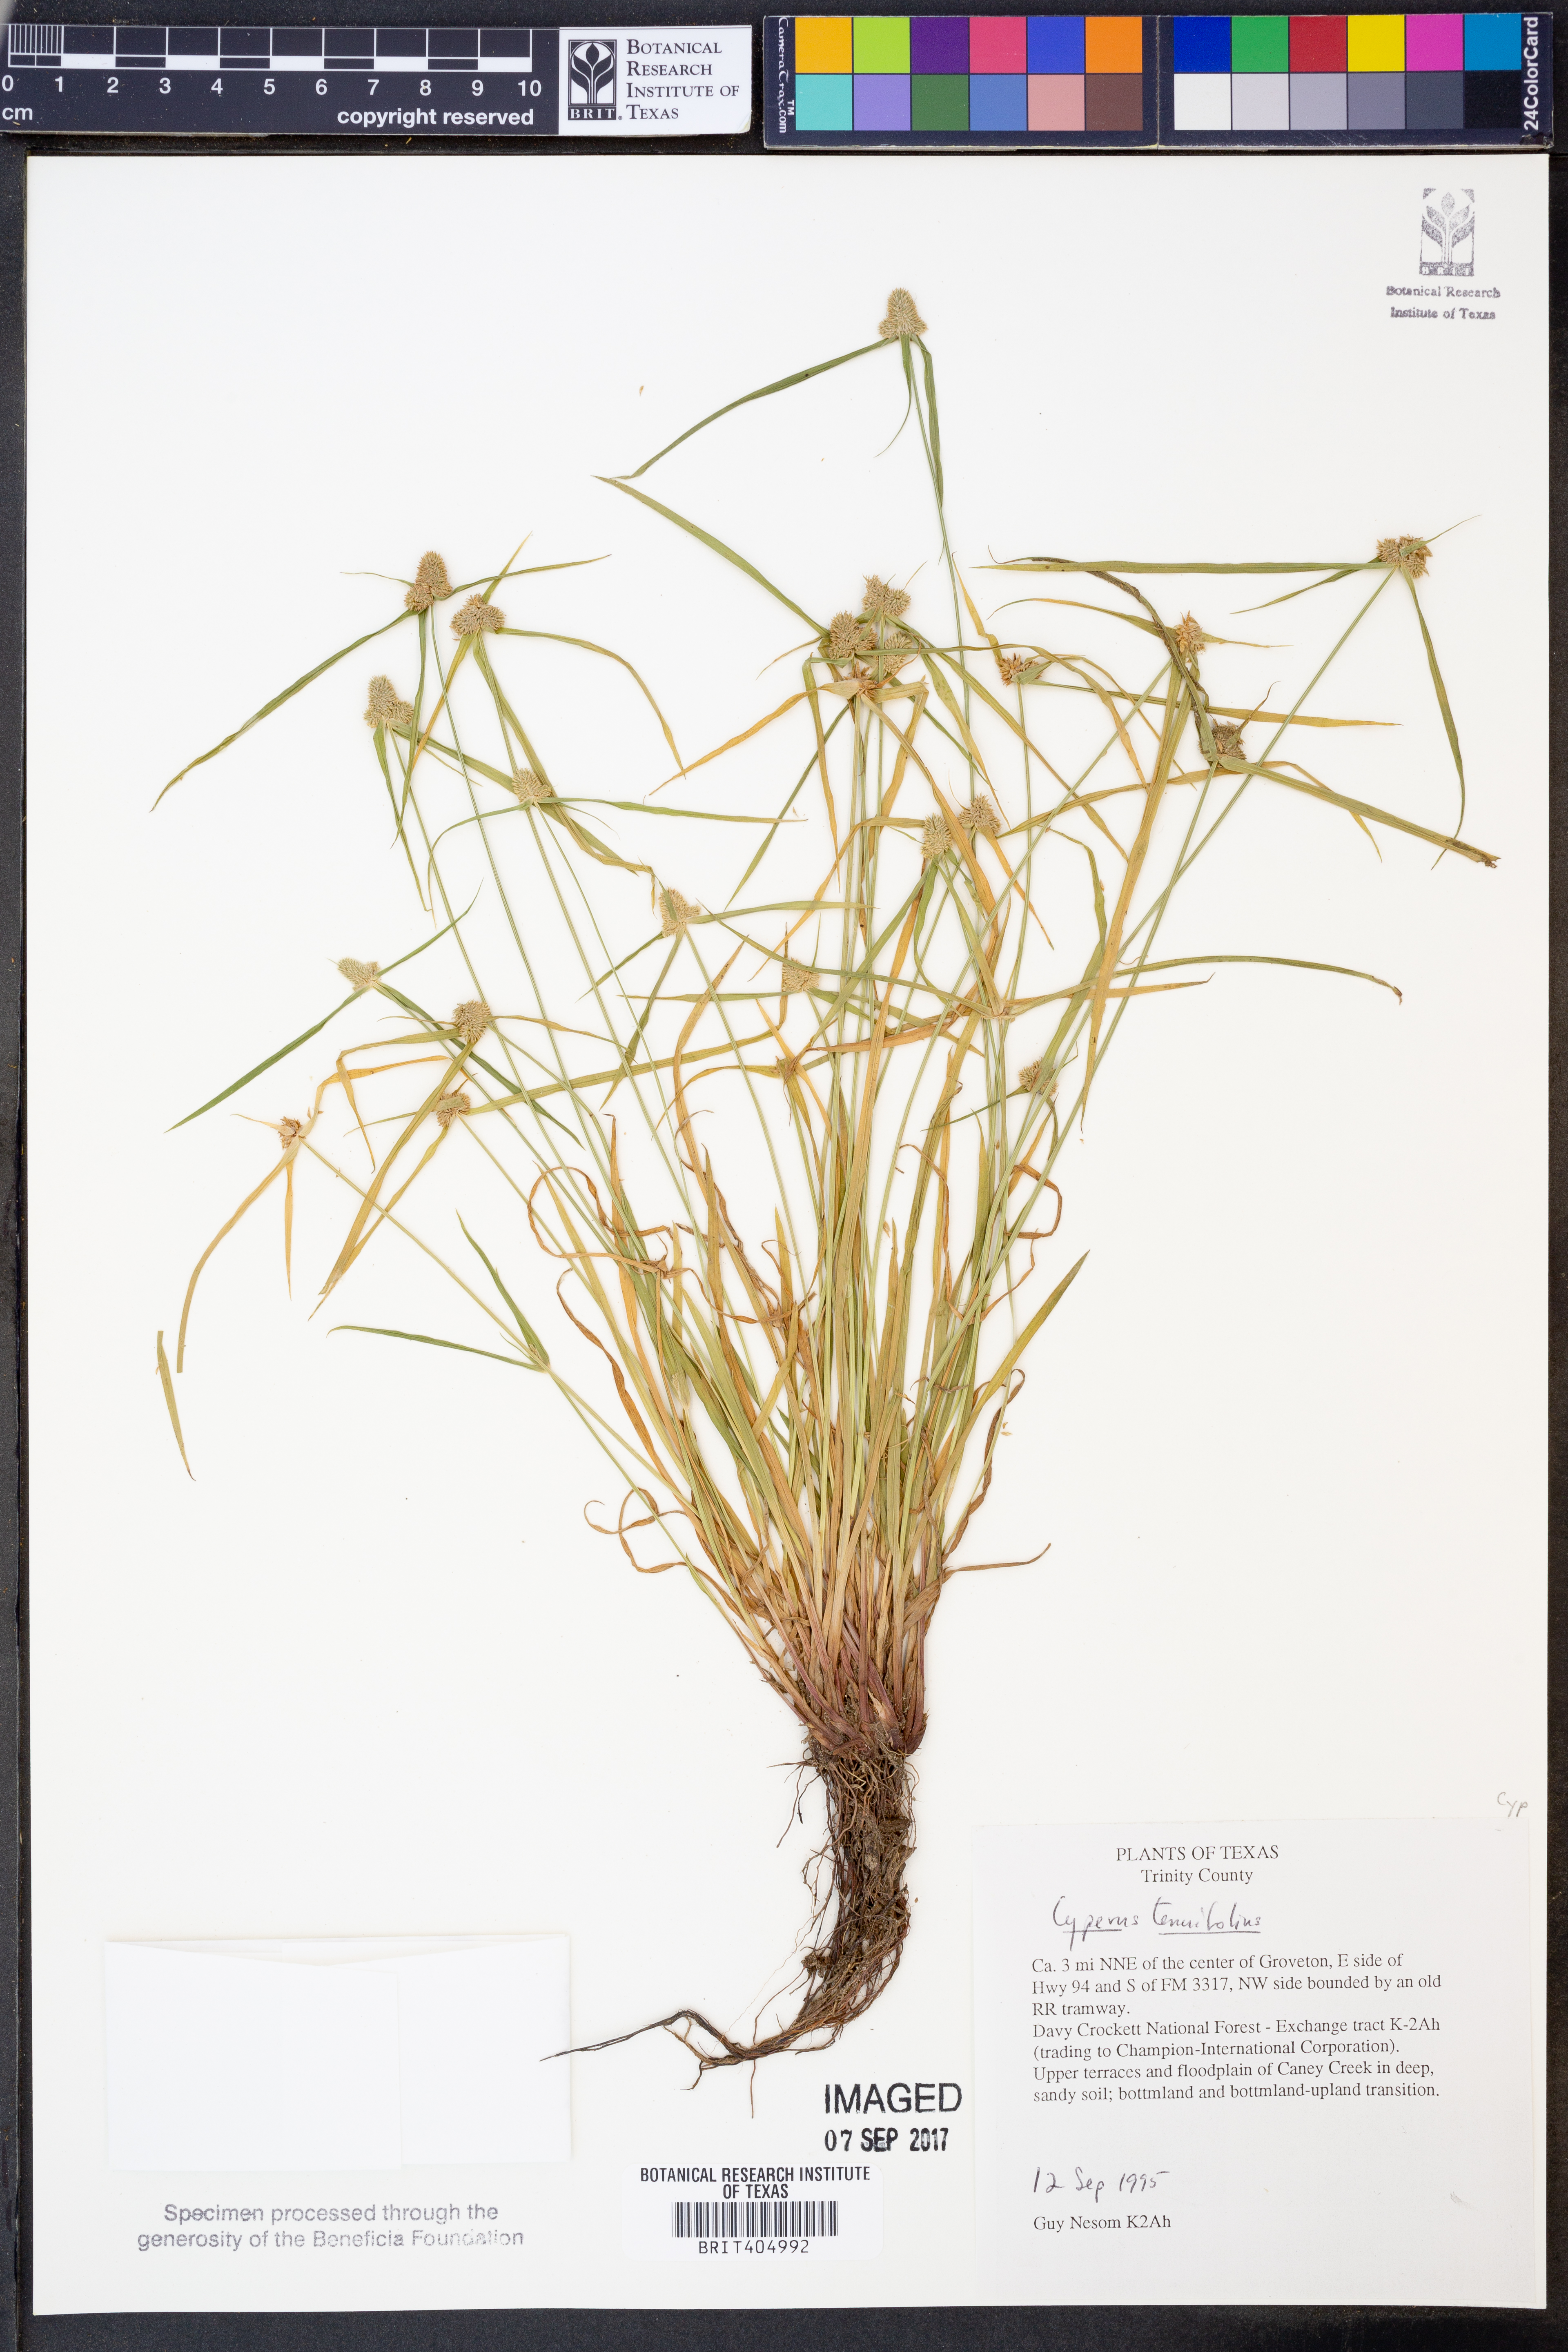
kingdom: Plantae
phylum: Tracheophyta
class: Liliopsida
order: Poales
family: Cyperaceae
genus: Cyperus
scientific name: Cyperus tenuifolius
